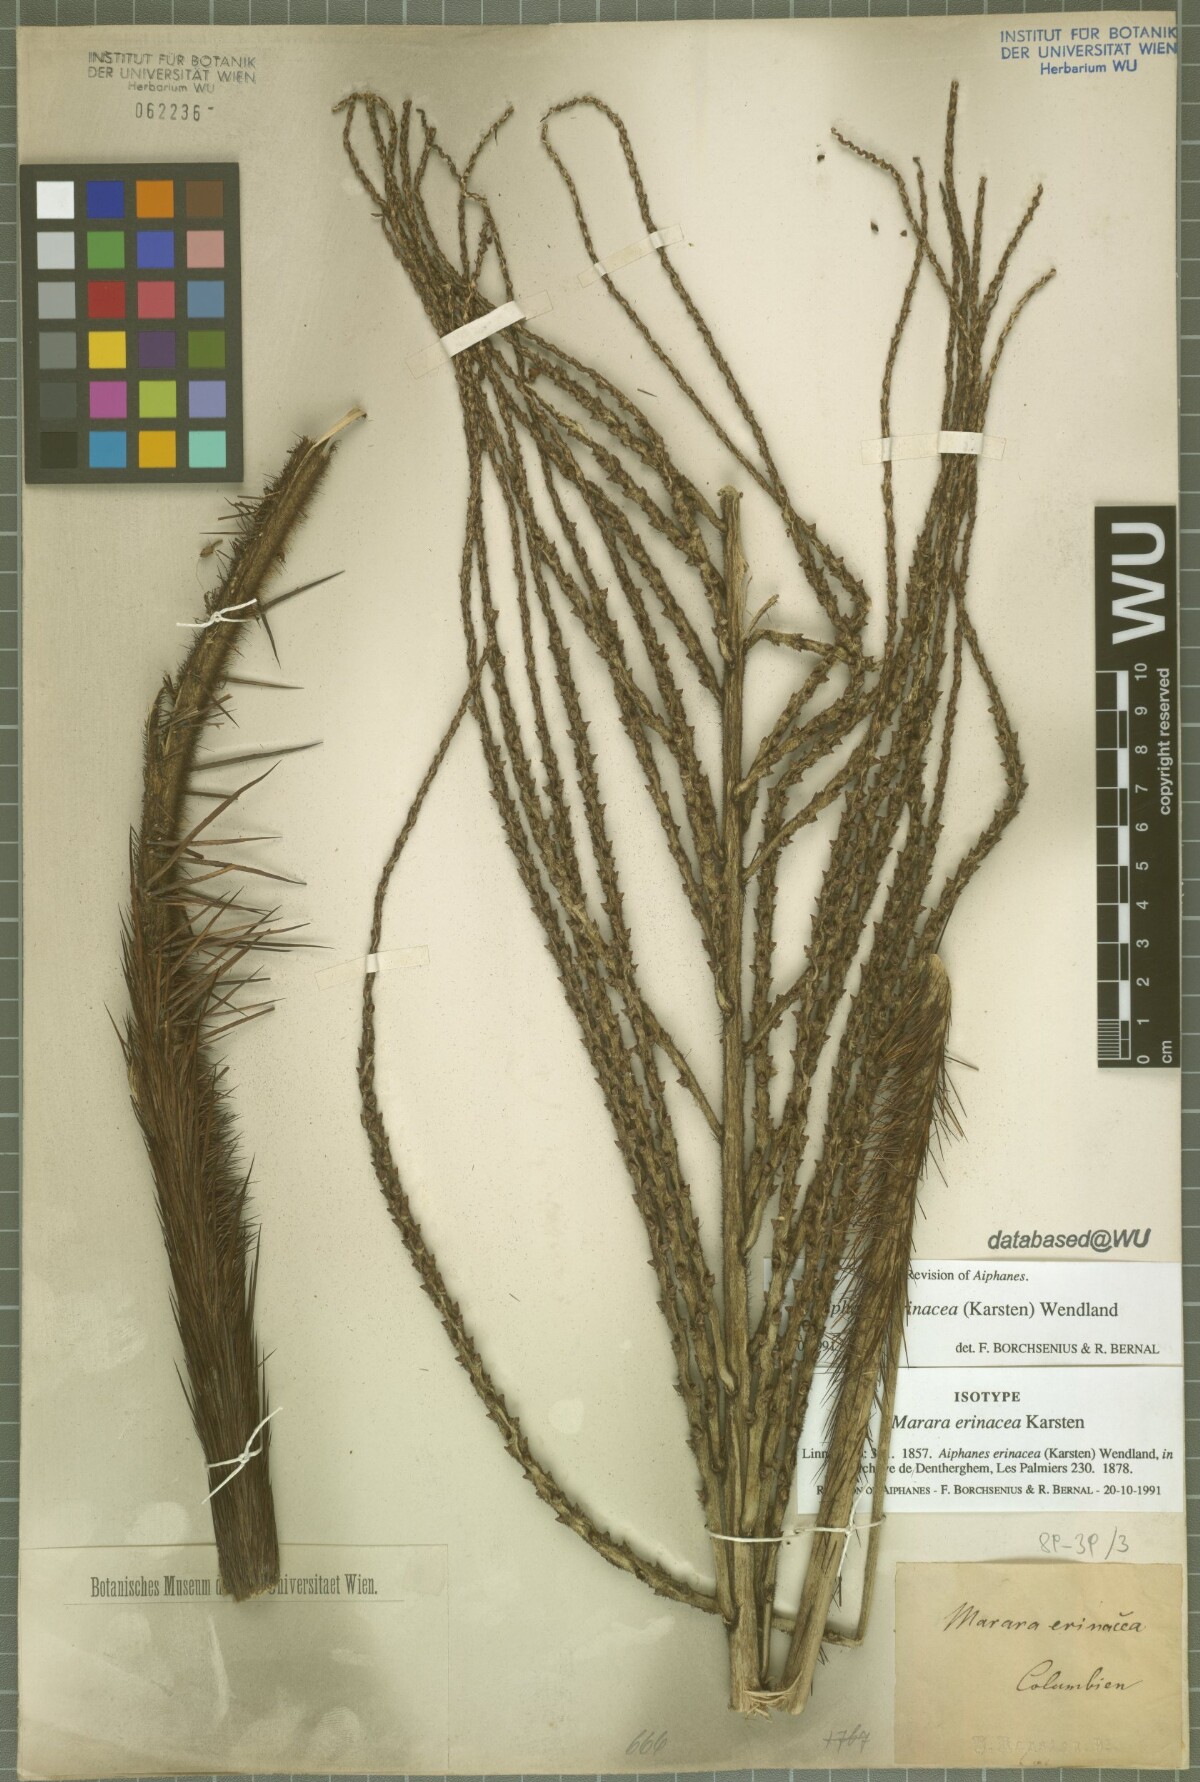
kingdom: Plantae
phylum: Tracheophyta
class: Liliopsida
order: Arecales
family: Arecaceae
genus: Aiphanes
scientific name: Aiphanes erinacea
